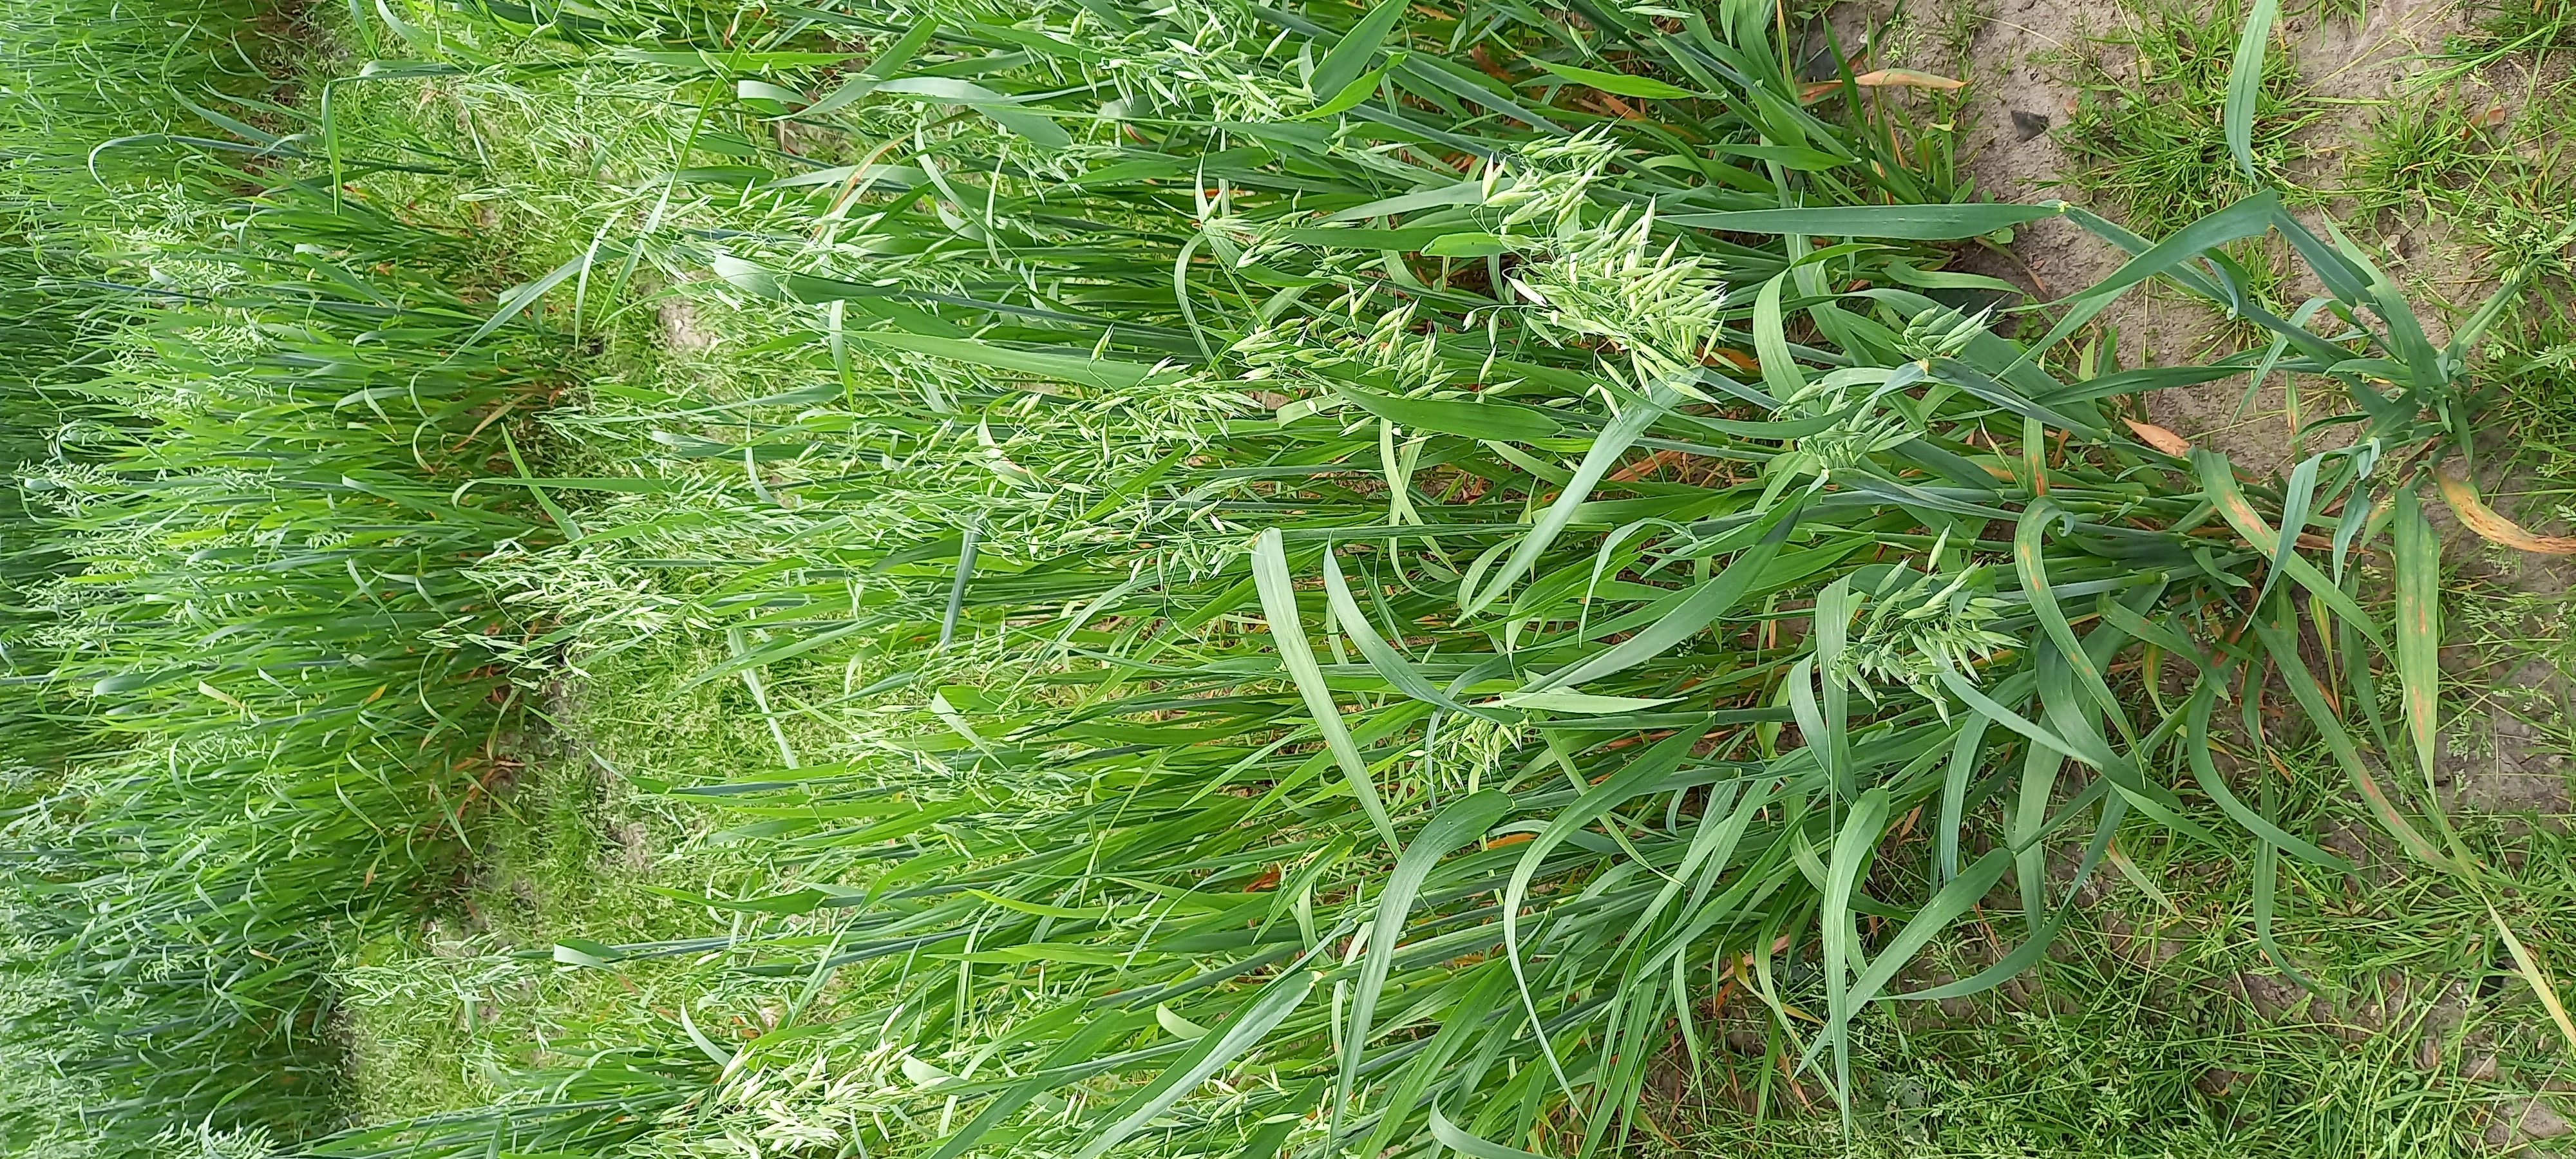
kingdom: Plantae
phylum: Tracheophyta
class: Liliopsida
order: Poales
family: Poaceae
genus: Avena
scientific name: Avena sativa
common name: Oat
